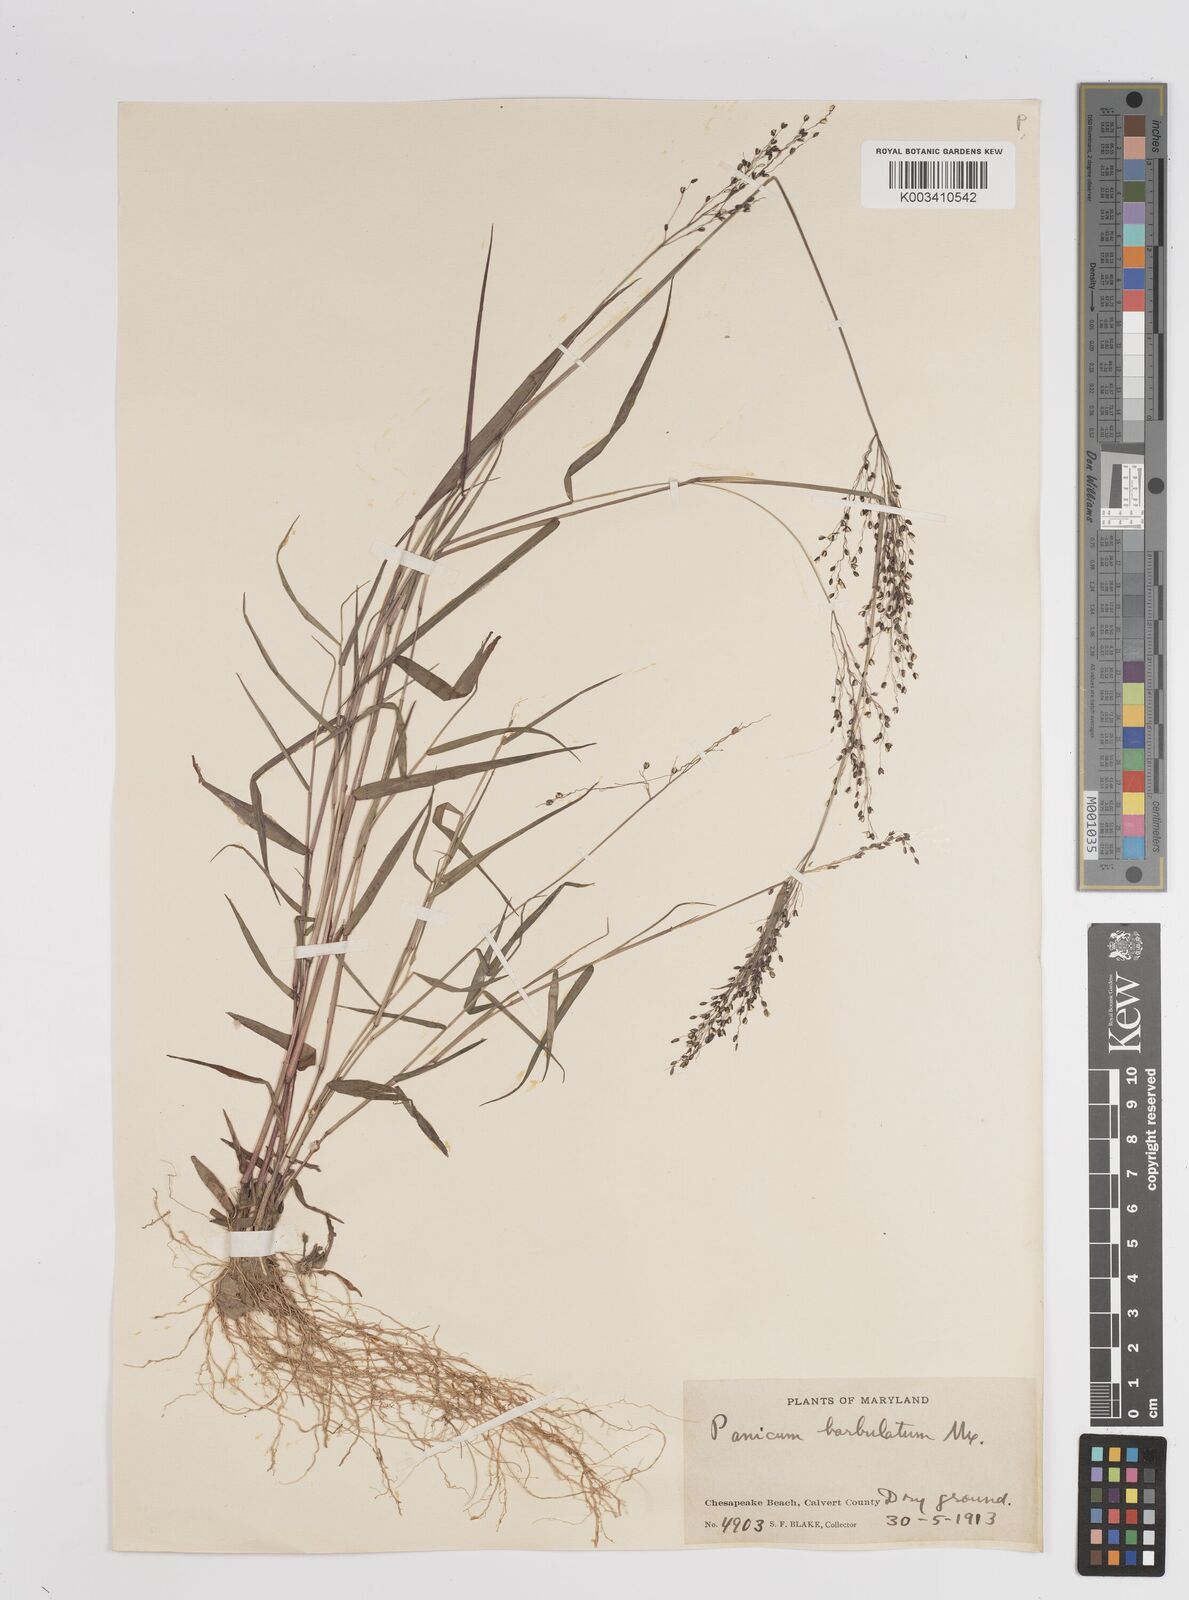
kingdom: Plantae
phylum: Tracheophyta
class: Liliopsida
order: Poales
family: Poaceae
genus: Dichanthelium
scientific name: Dichanthelium dichotomum
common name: Cypress panicgrass
